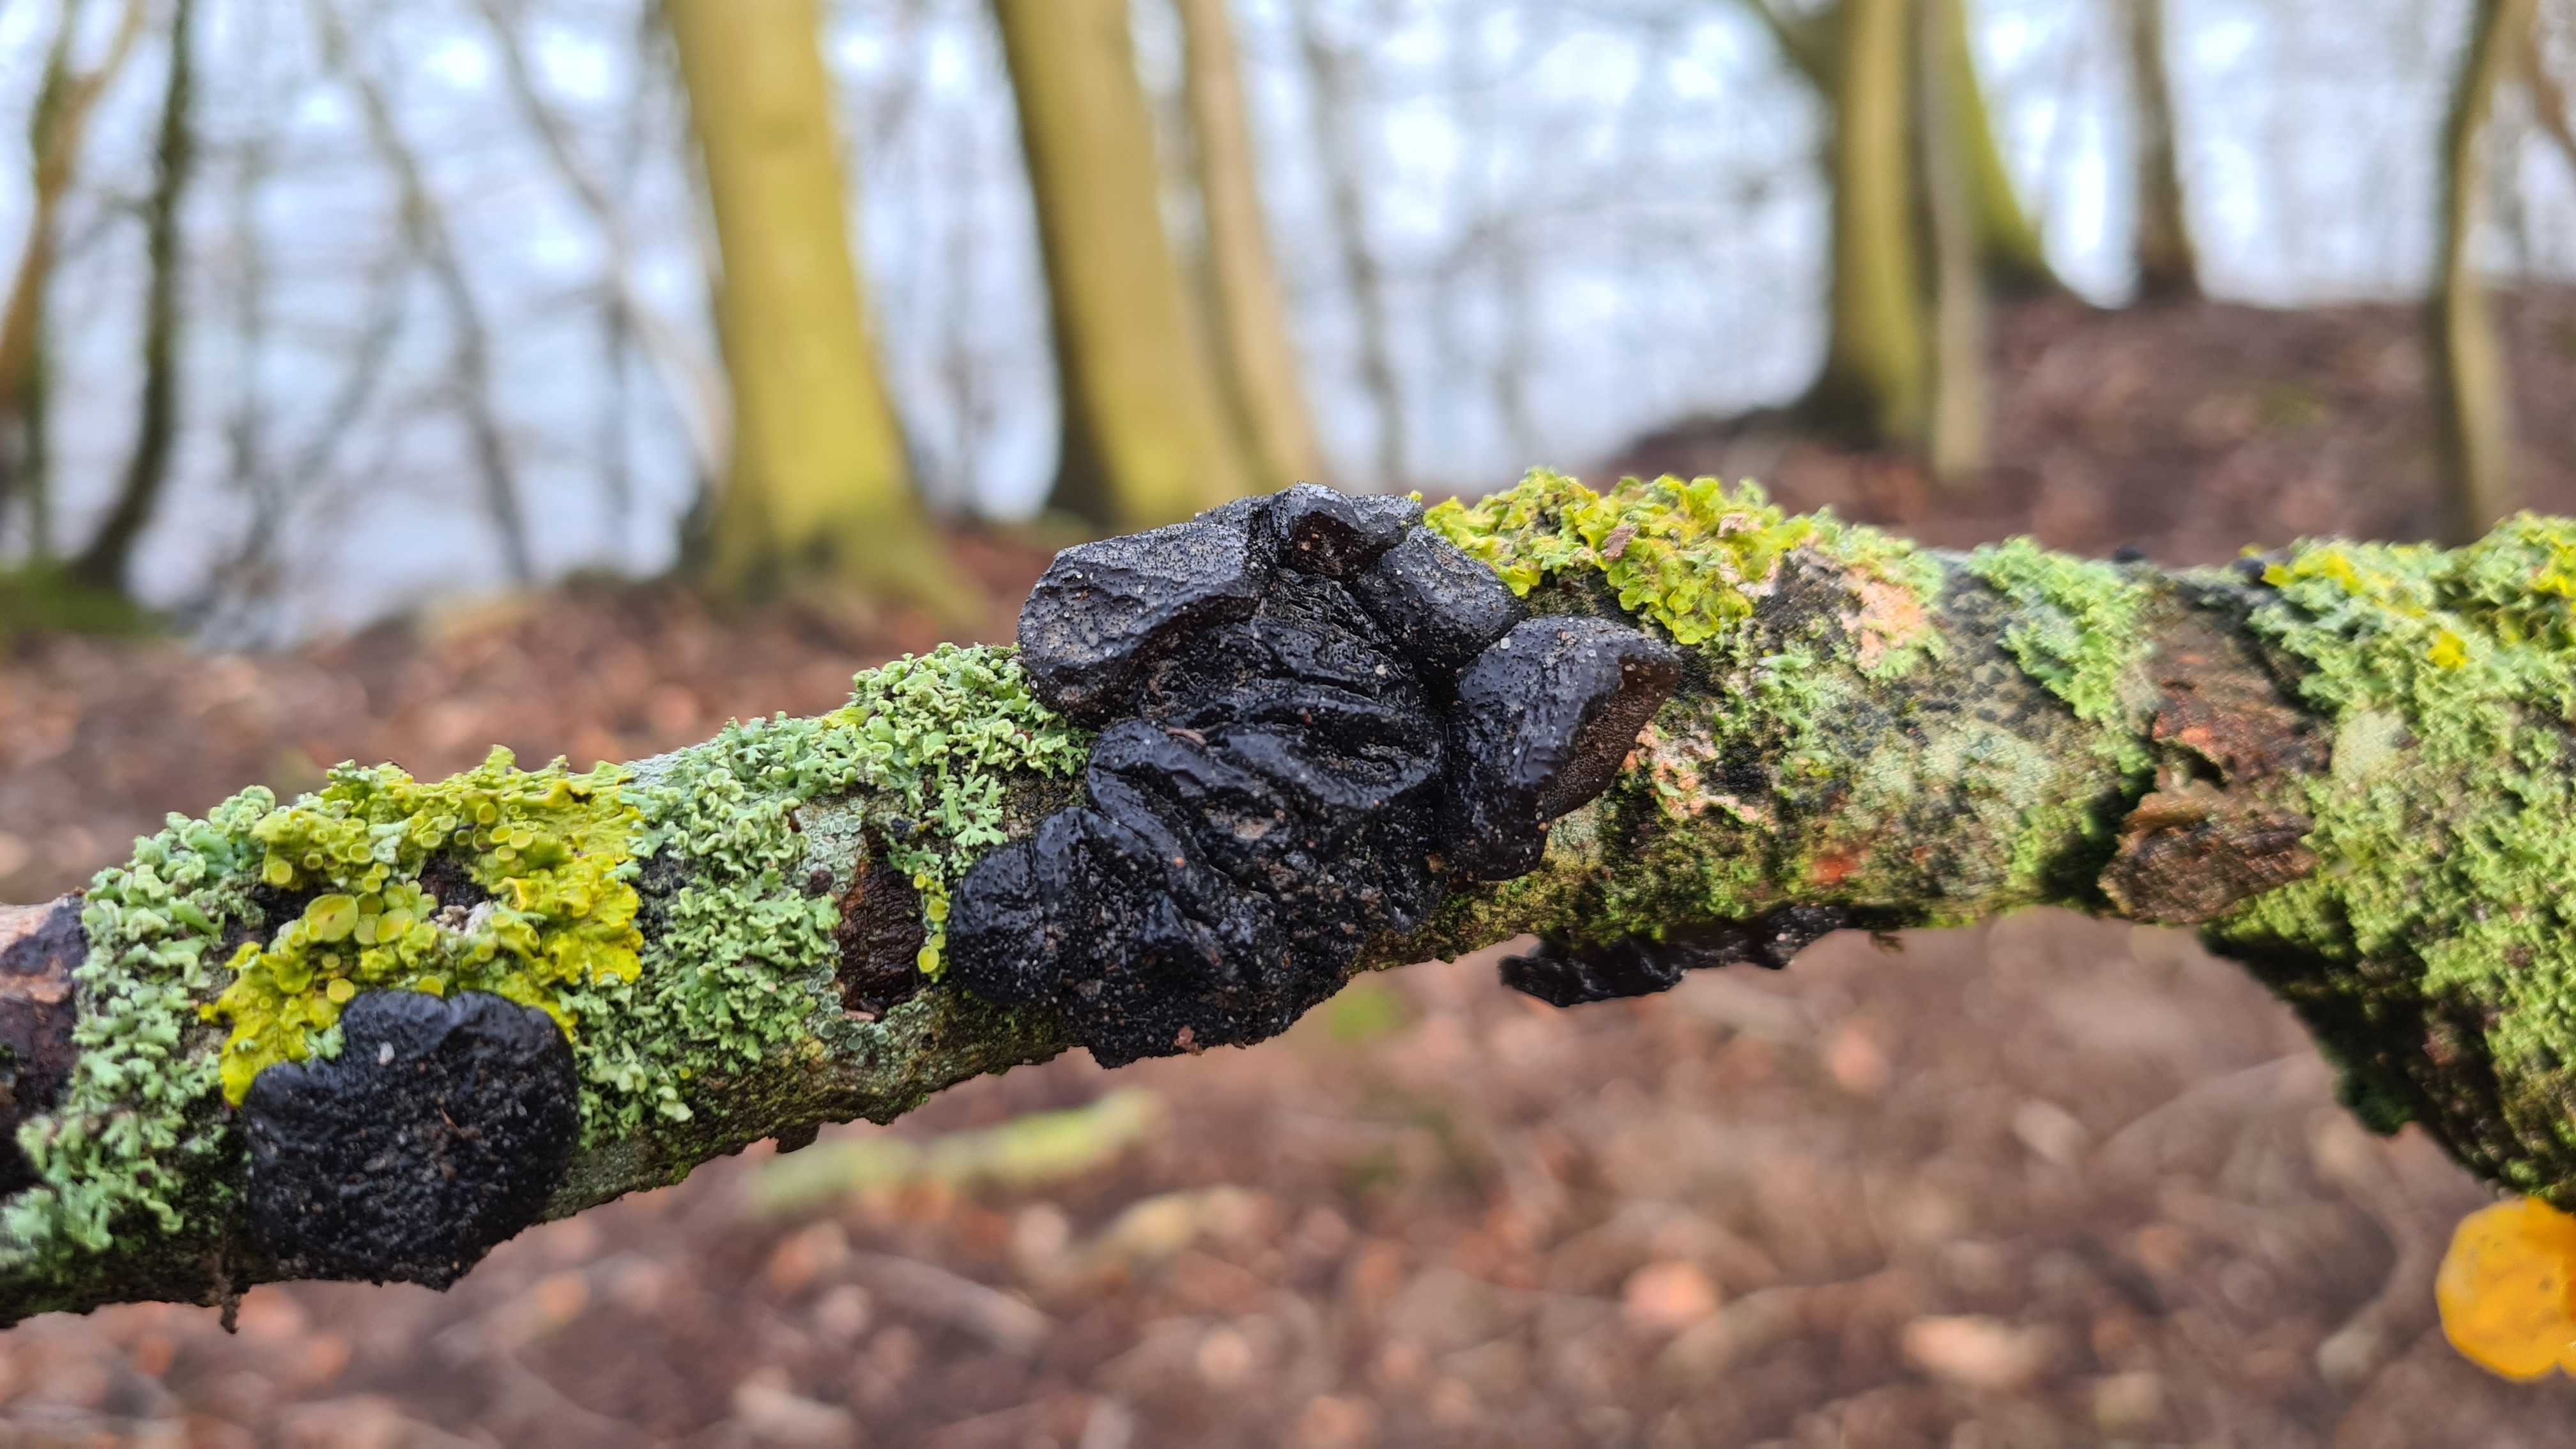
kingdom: Fungi
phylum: Basidiomycota
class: Agaricomycetes
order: Auriculariales
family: Auriculariaceae
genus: Exidia
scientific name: Exidia glandulosa
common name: ege-bævretop
